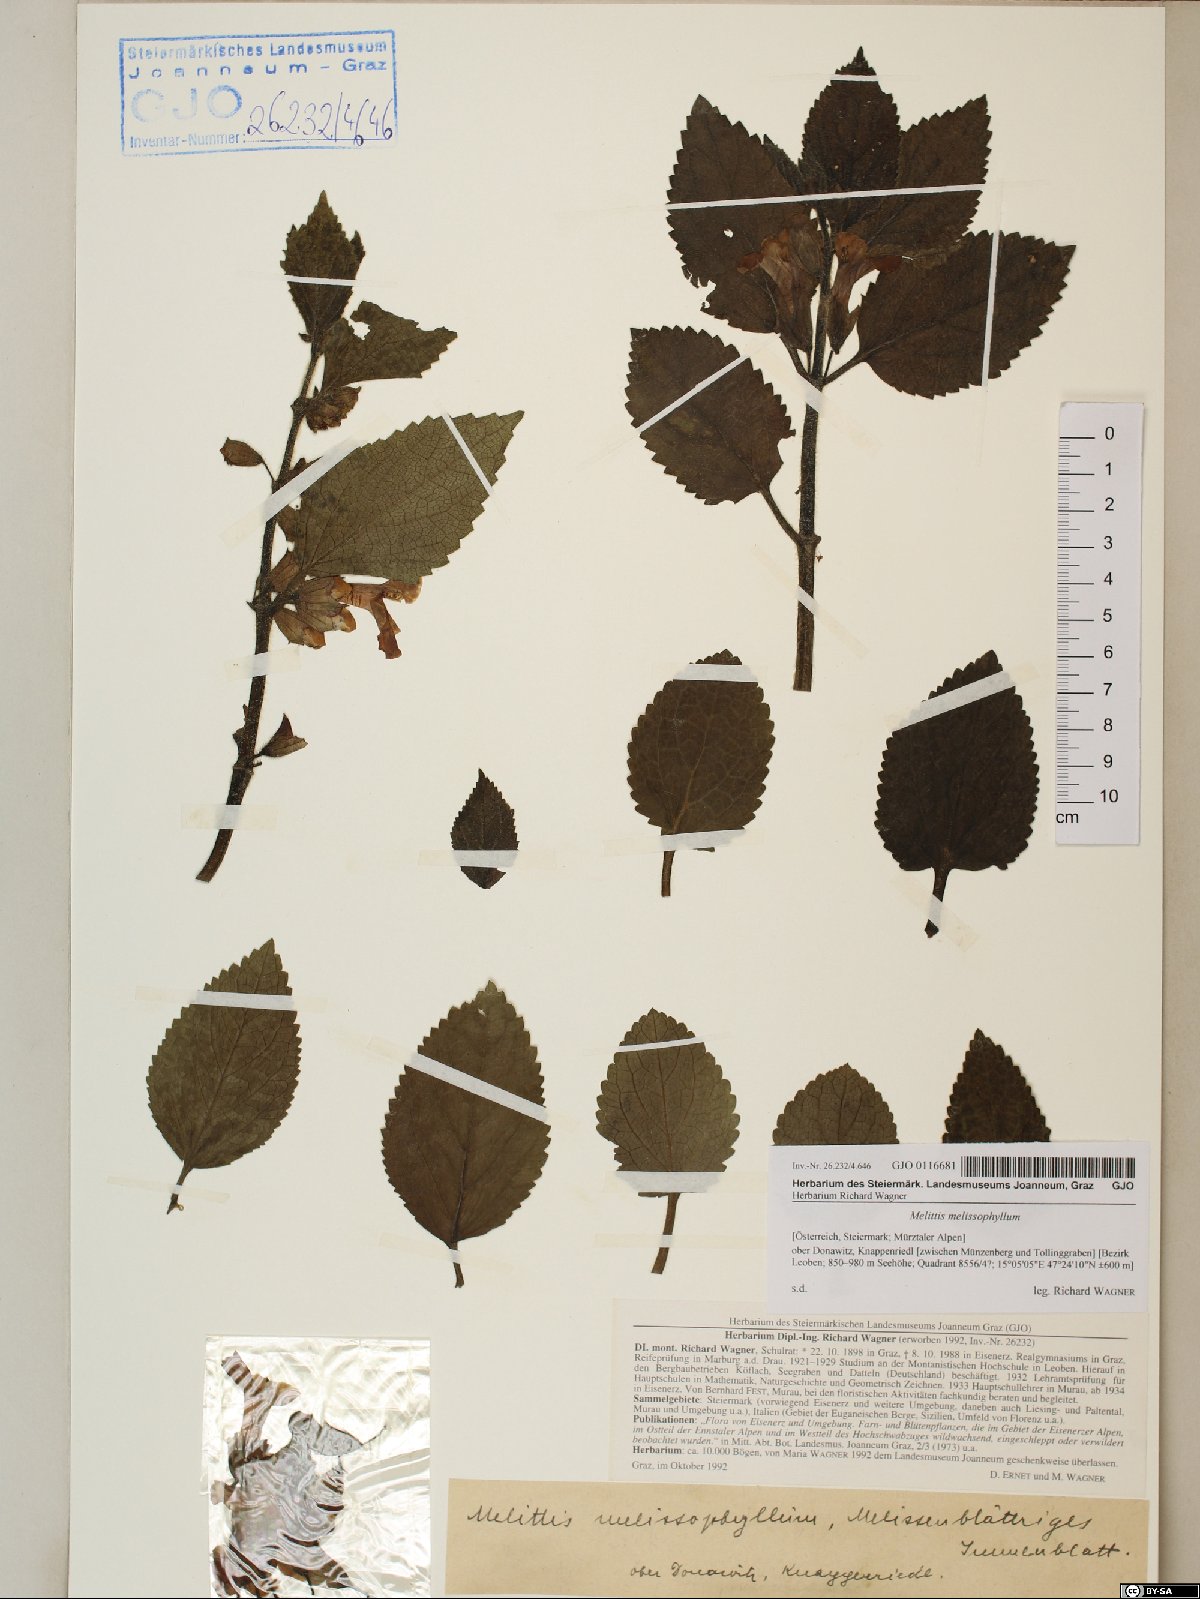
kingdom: Plantae
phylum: Tracheophyta
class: Magnoliopsida
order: Lamiales
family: Lamiaceae
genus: Melittis
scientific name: Melittis melissophyllum
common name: Bastard balm
